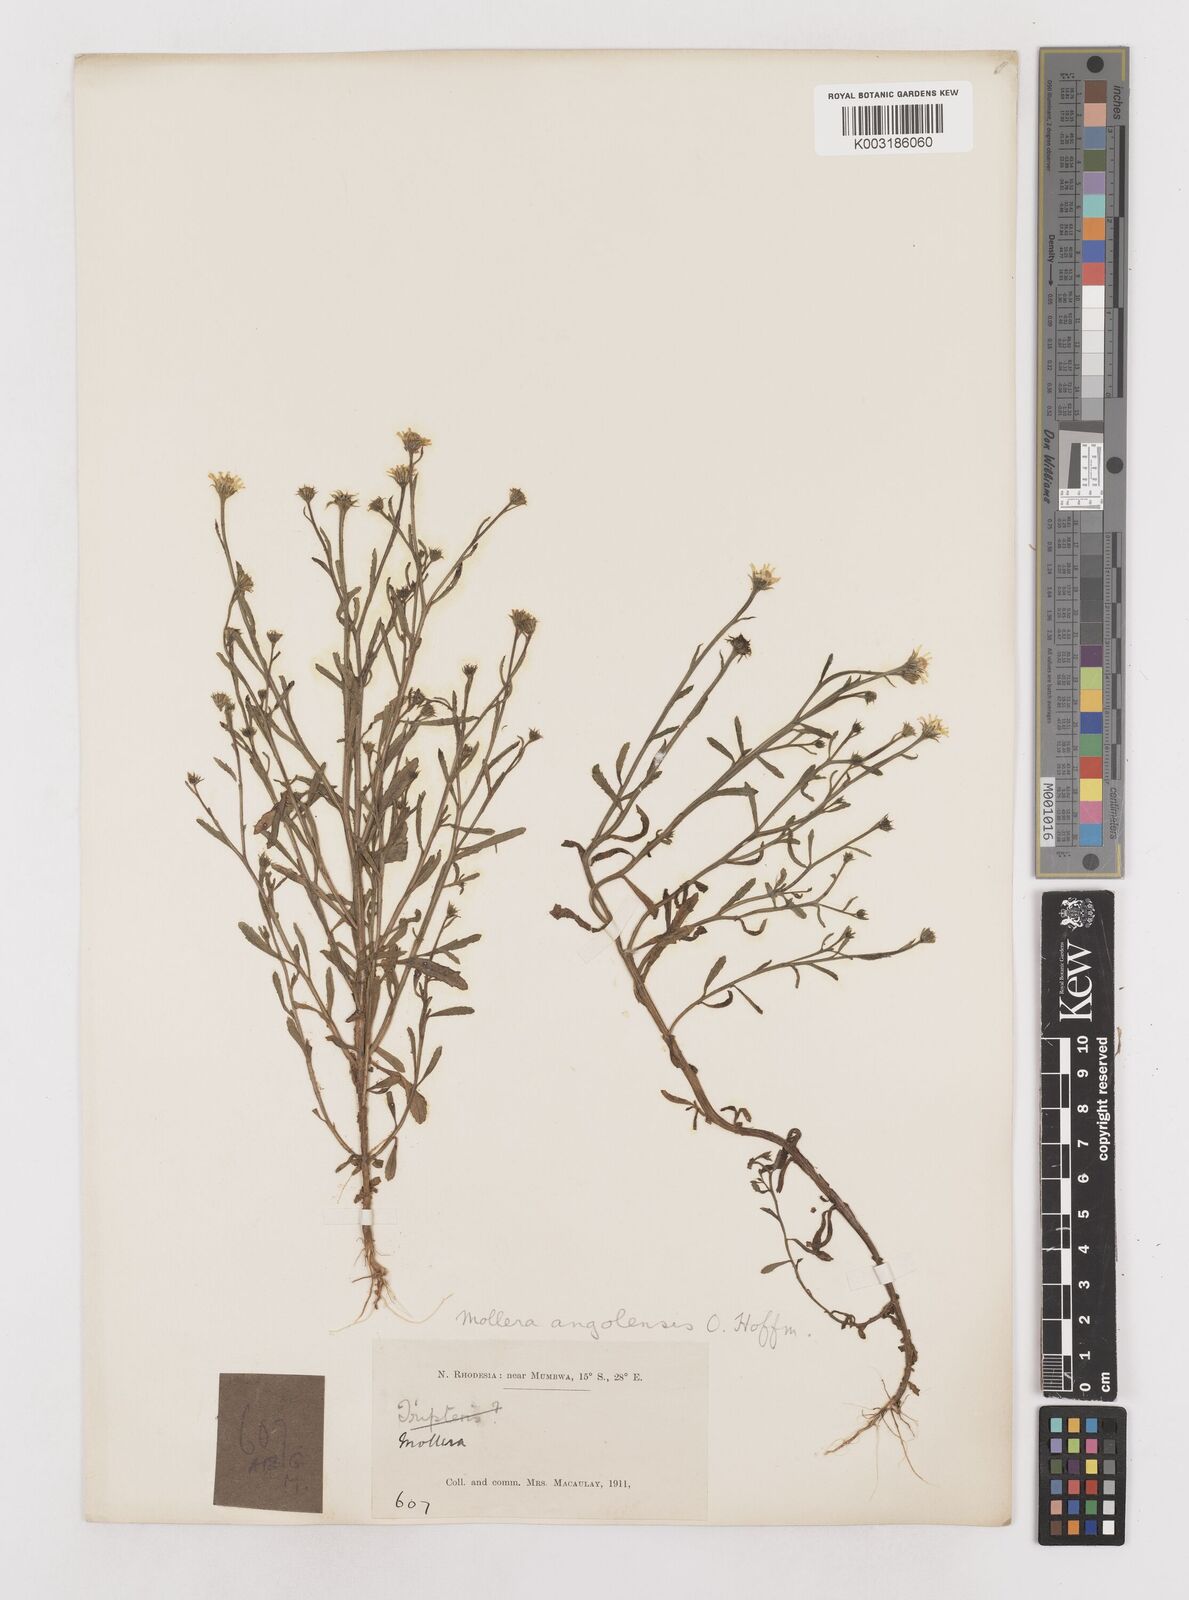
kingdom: Plantae
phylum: Tracheophyta
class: Magnoliopsida
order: Asterales
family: Asteraceae
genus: Calostephane
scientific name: Calostephane angolensis
